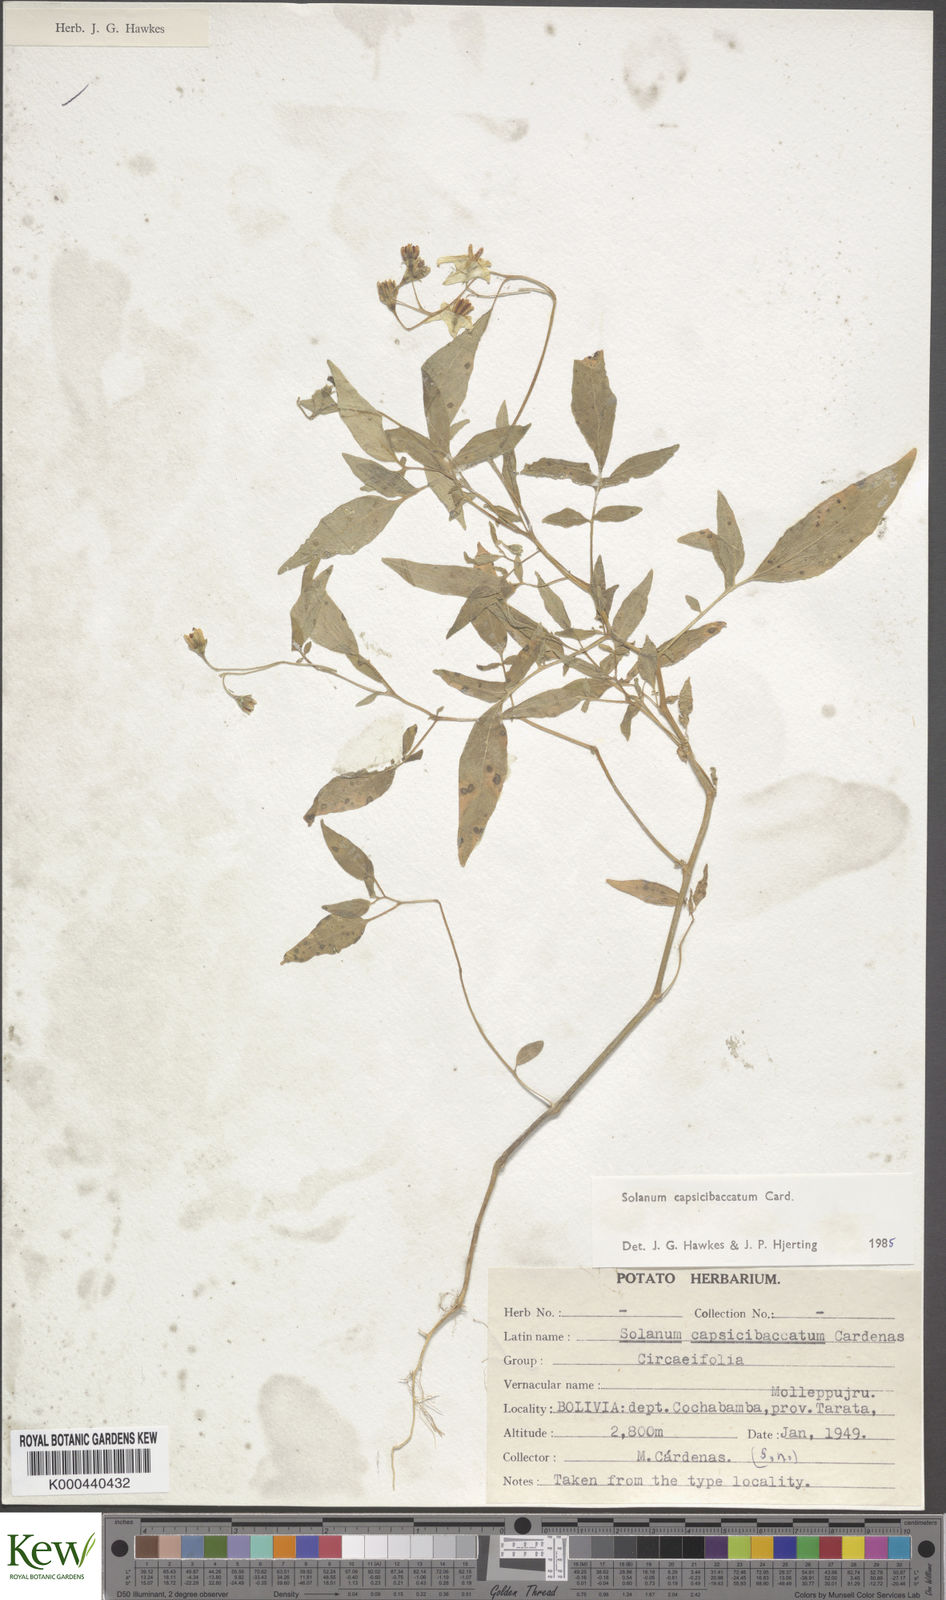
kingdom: Plantae
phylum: Tracheophyta
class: Magnoliopsida
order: Solanales
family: Solanaceae
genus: Solanum
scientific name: Solanum stipuloideum
